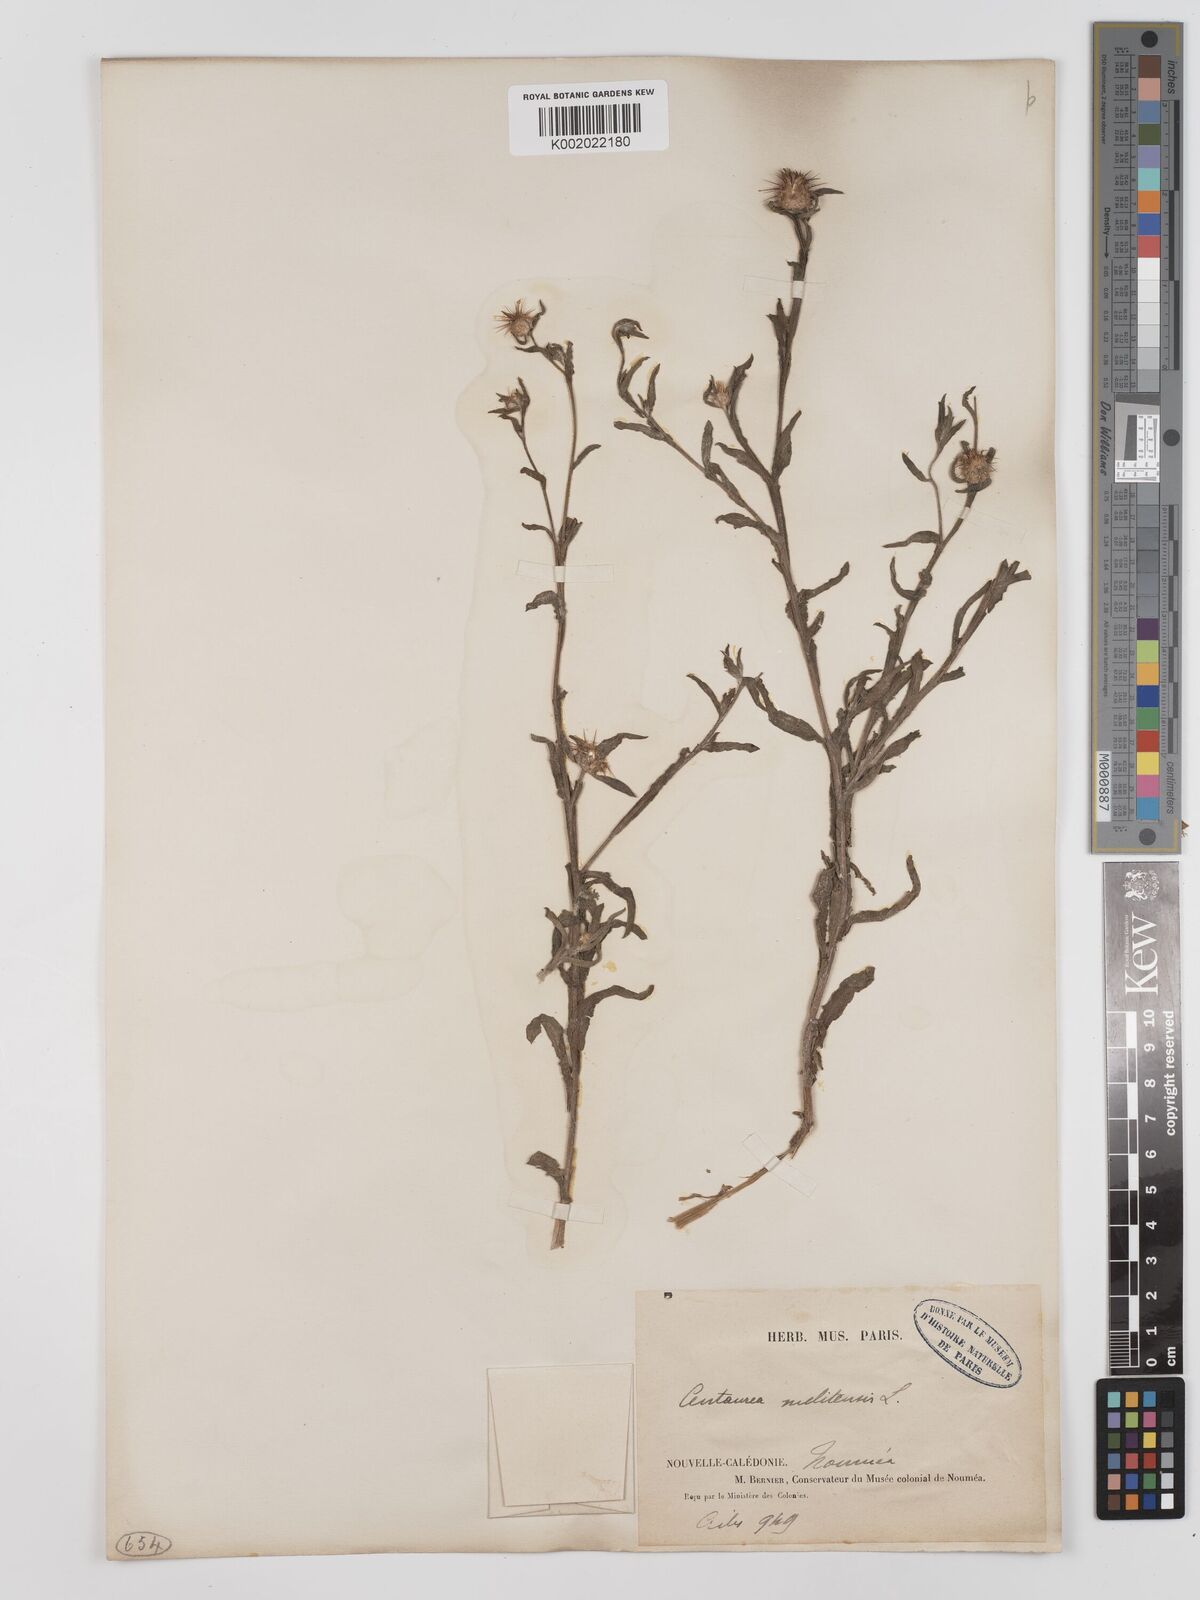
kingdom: Plantae
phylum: Tracheophyta
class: Magnoliopsida
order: Asterales
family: Asteraceae
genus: Centaurea
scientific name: Centaurea melitensis
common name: Maltese star-thistle
